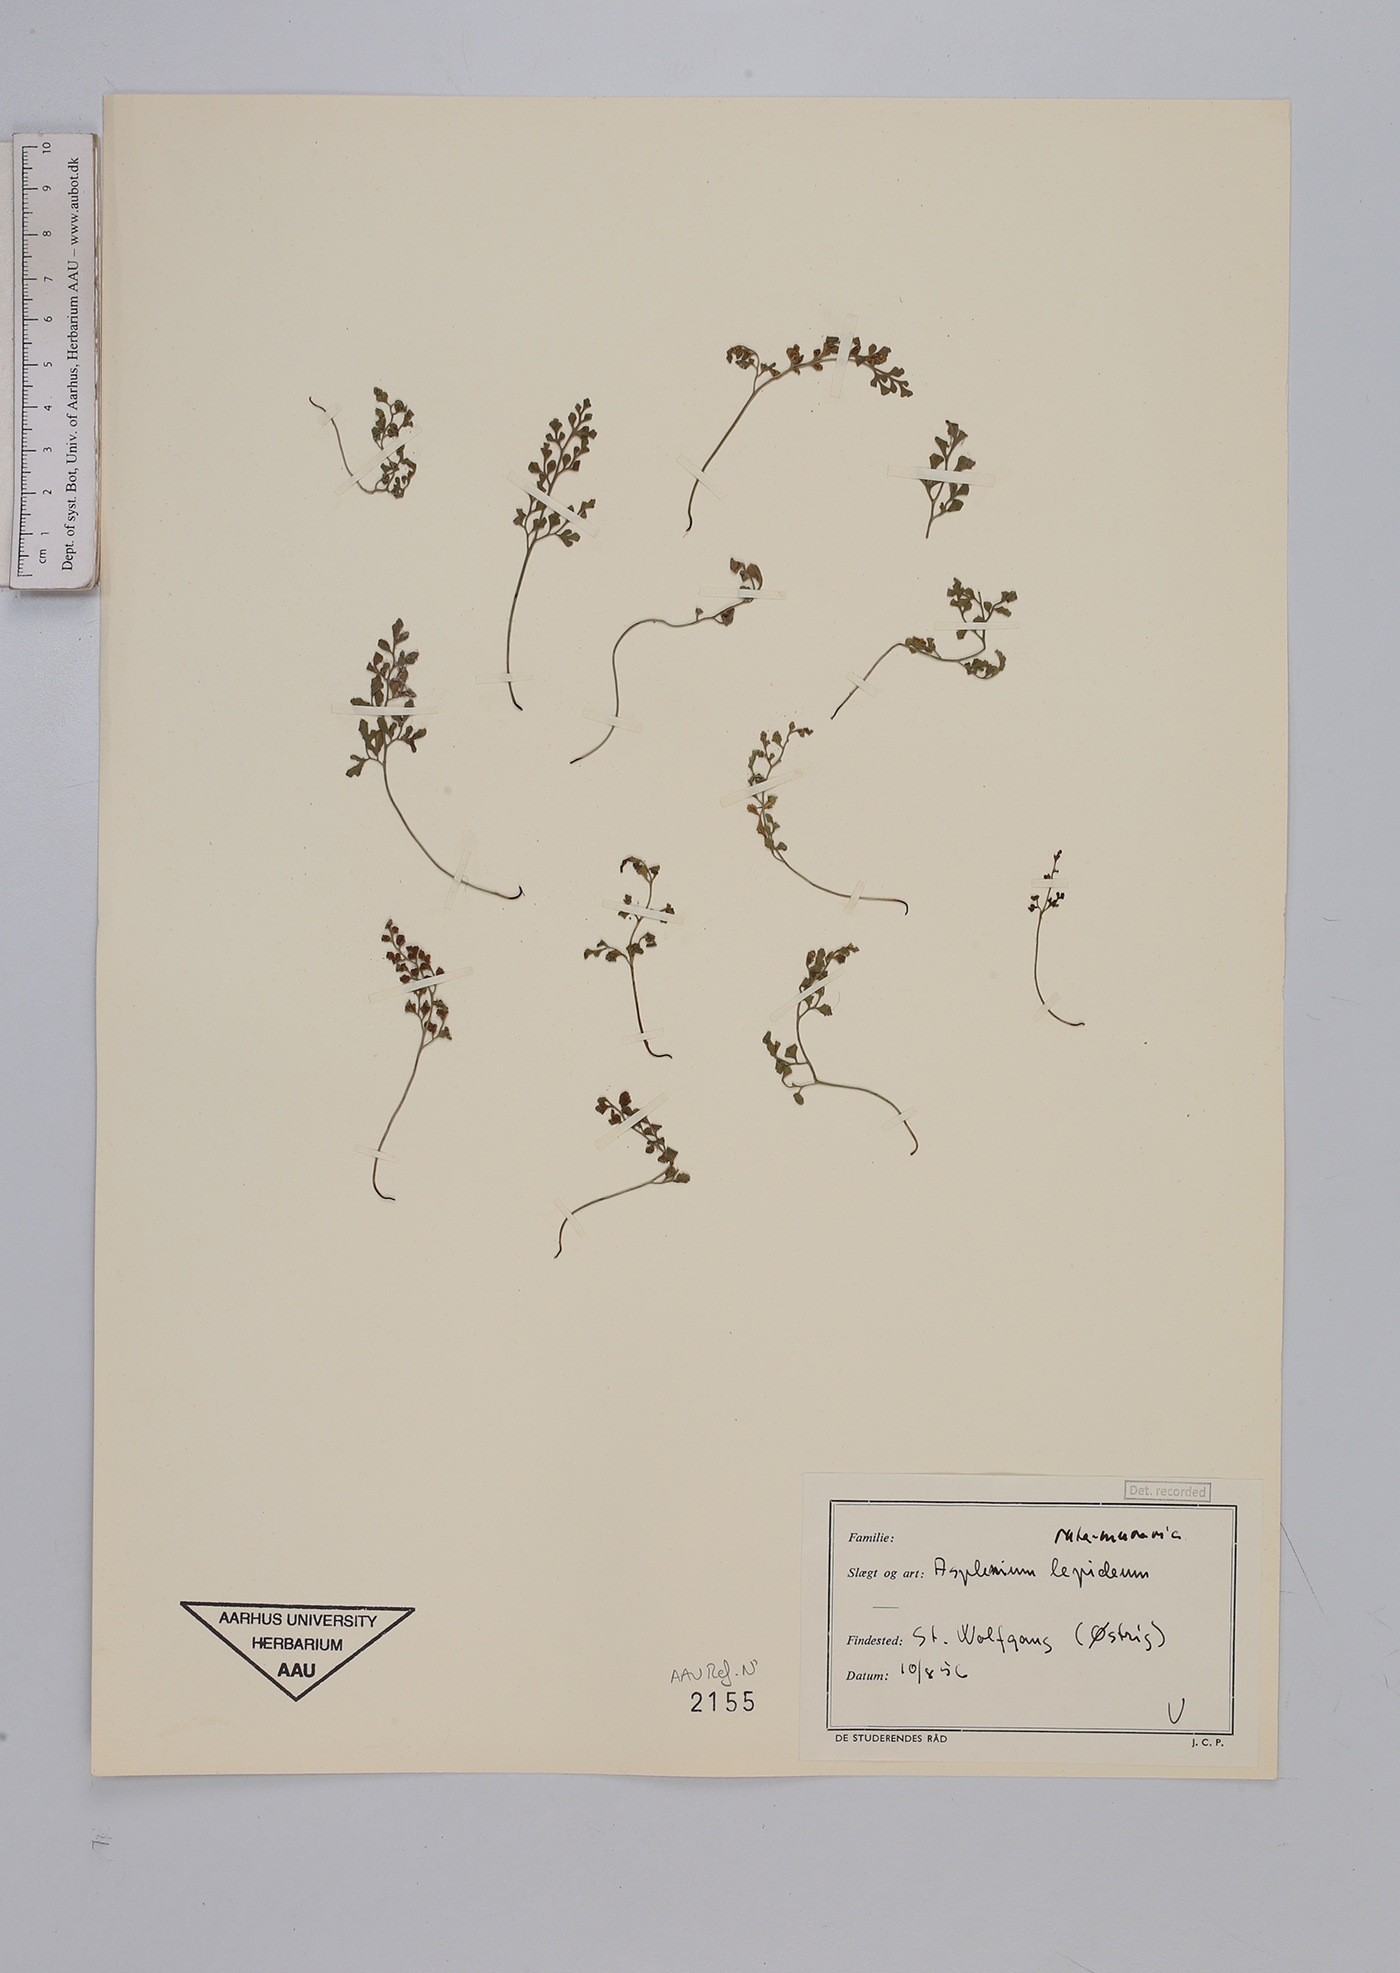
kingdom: Plantae
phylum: Tracheophyta
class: Polypodiopsida
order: Polypodiales
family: Aspleniaceae
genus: Asplenium
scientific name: Asplenium ruta-muraria
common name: Wall-rue
